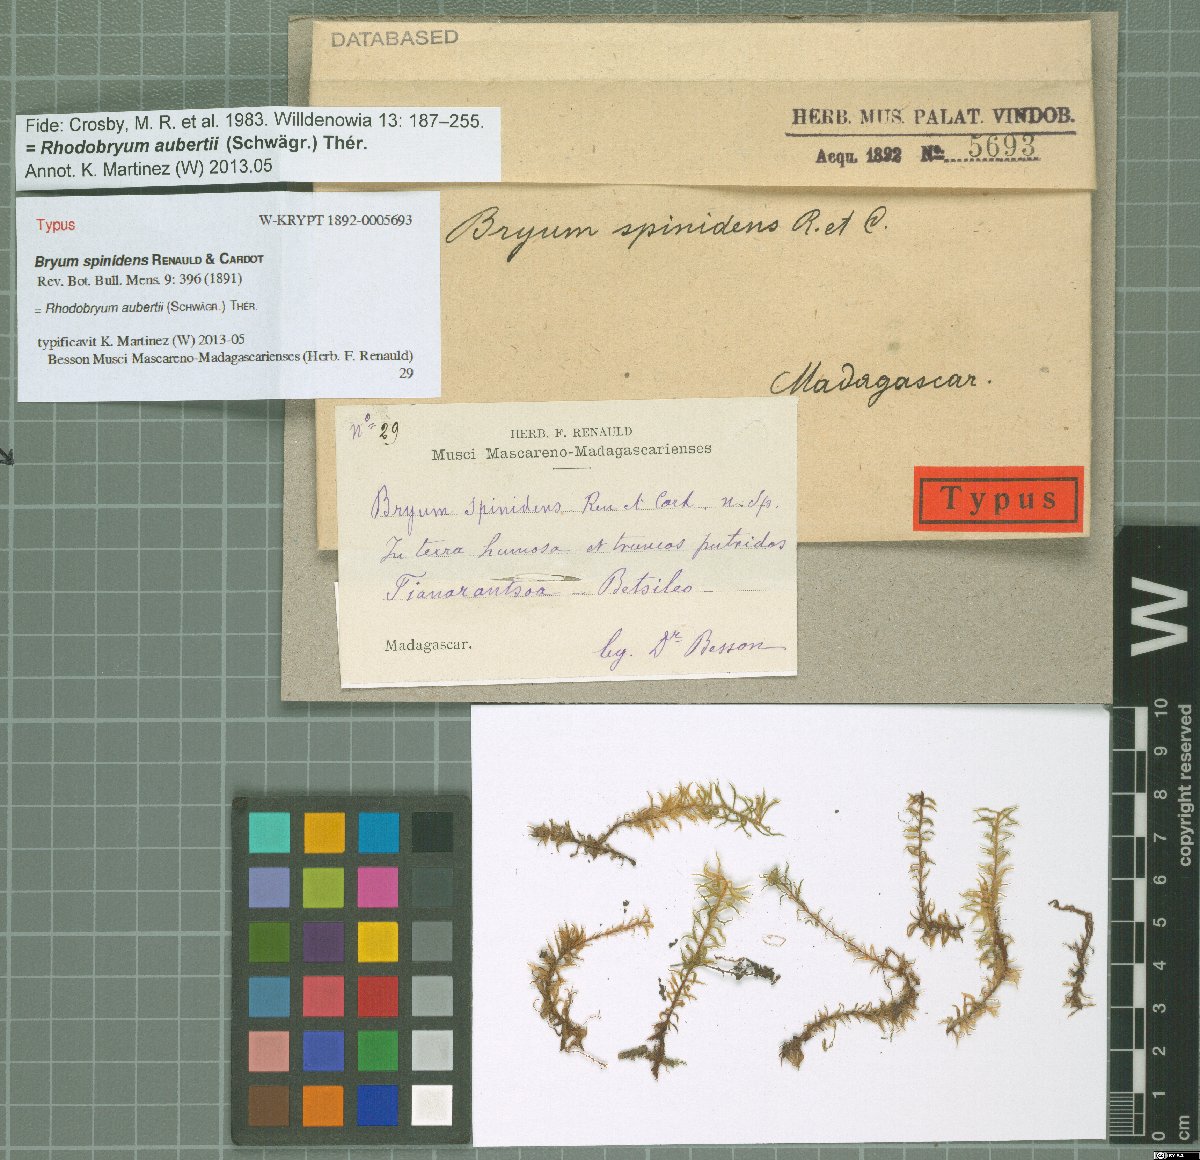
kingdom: Plantae
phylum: Bryophyta
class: Bryopsida
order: Bryales
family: Bryaceae
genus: Rosulabryum
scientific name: Rosulabryum aubertii
